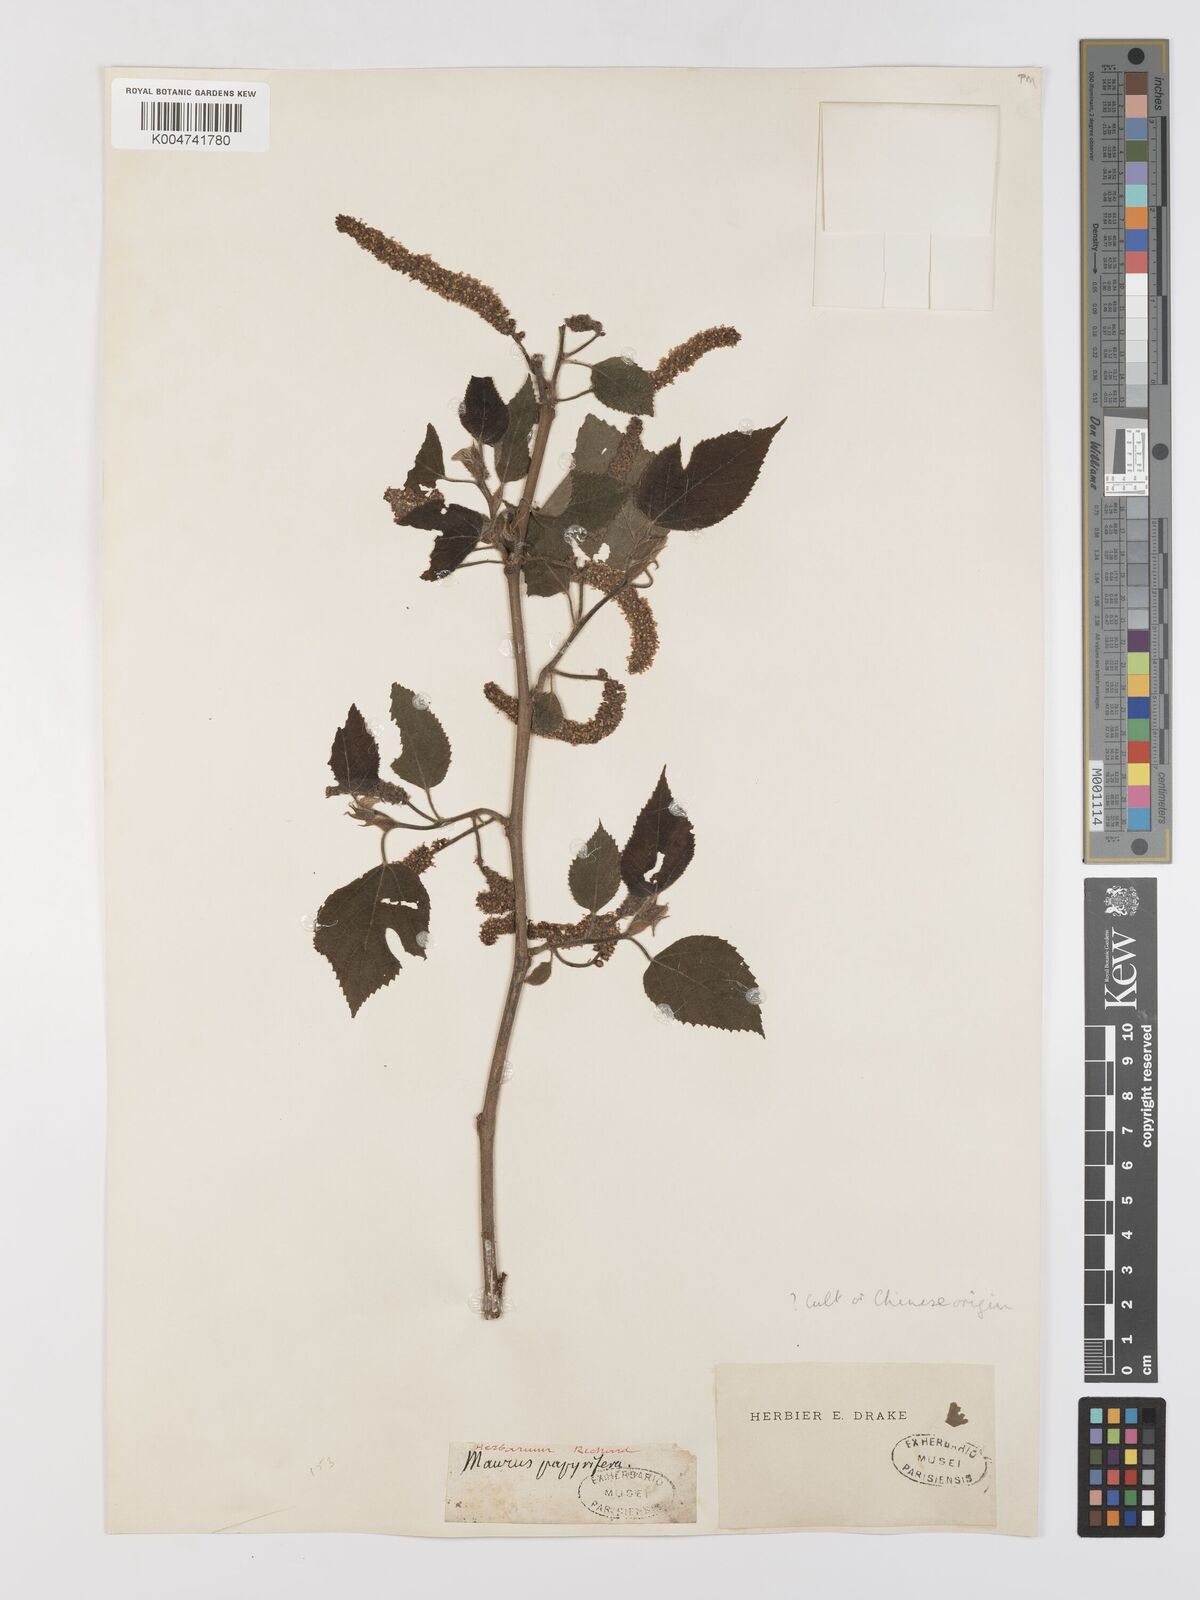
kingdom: Plantae
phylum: Tracheophyta
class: Magnoliopsida
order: Rosales
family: Moraceae
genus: Broussonetia
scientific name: Broussonetia papyrifera
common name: Paper mulberry
